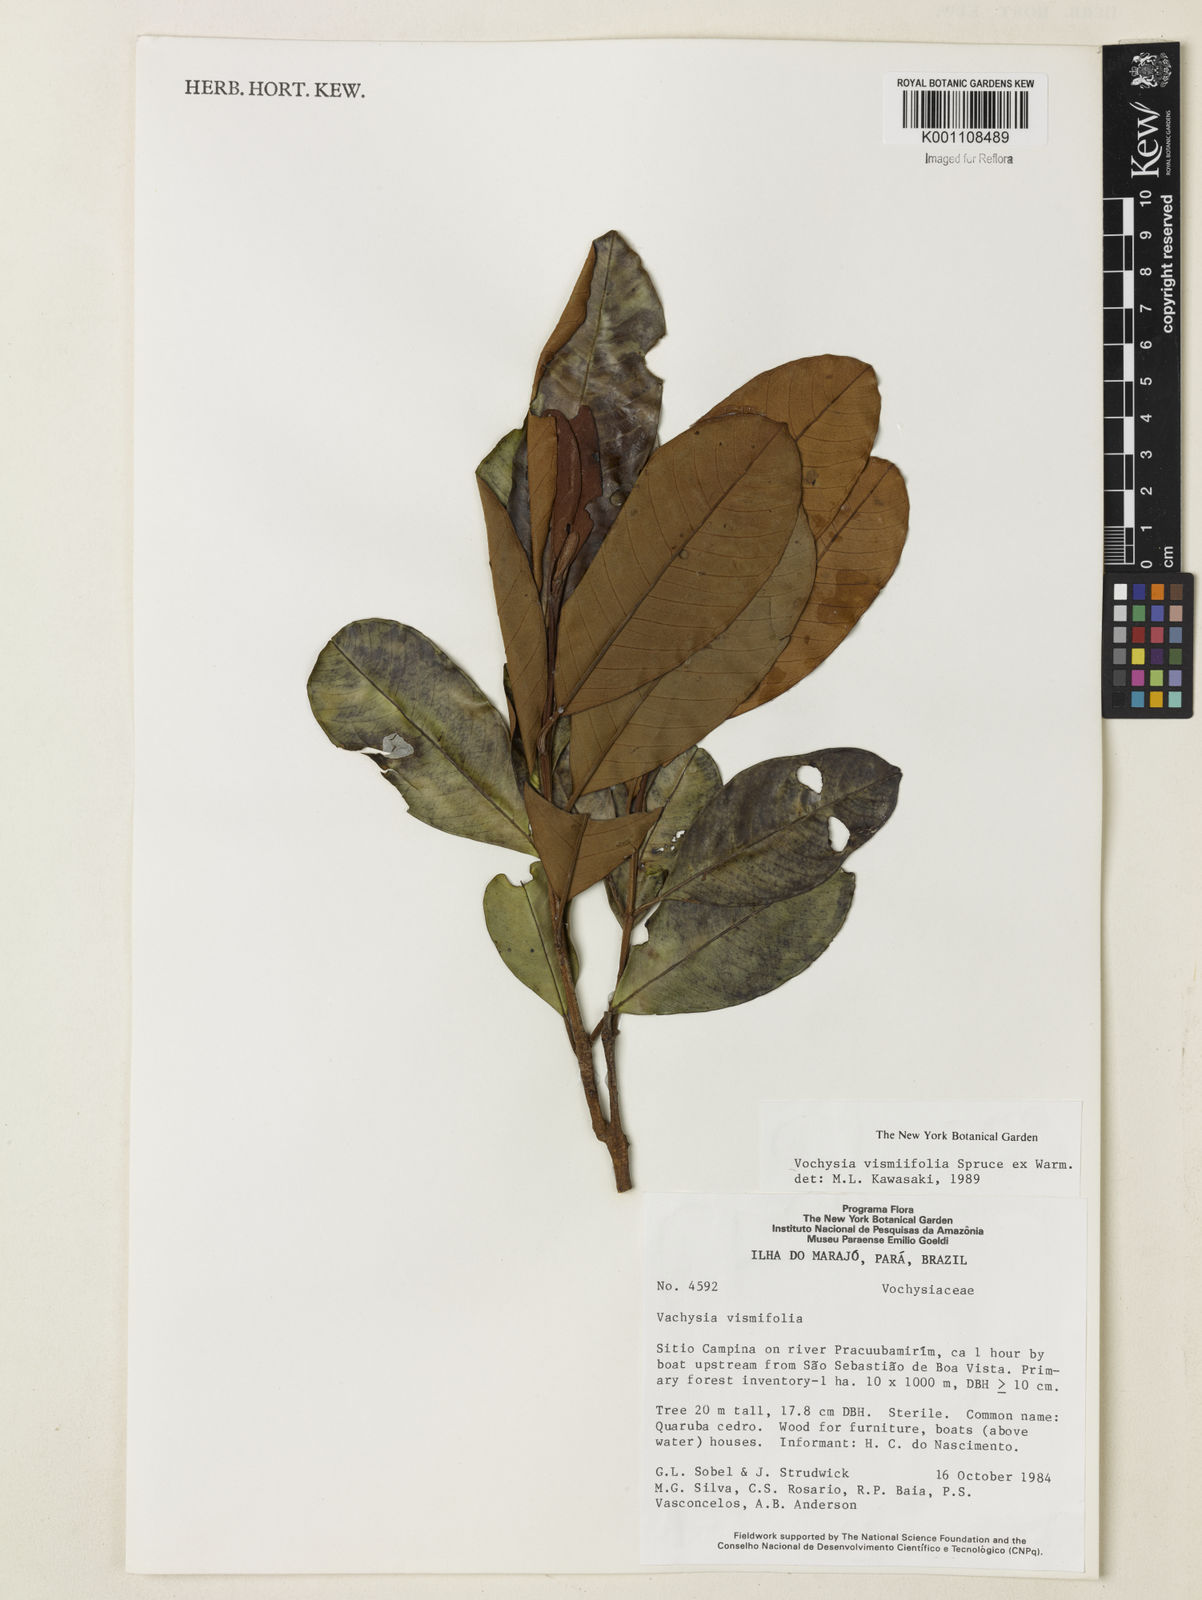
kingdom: Plantae
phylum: Tracheophyta
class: Magnoliopsida
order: Myrtales
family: Vochysiaceae
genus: Vochysia
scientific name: Vochysia vismiifolia
